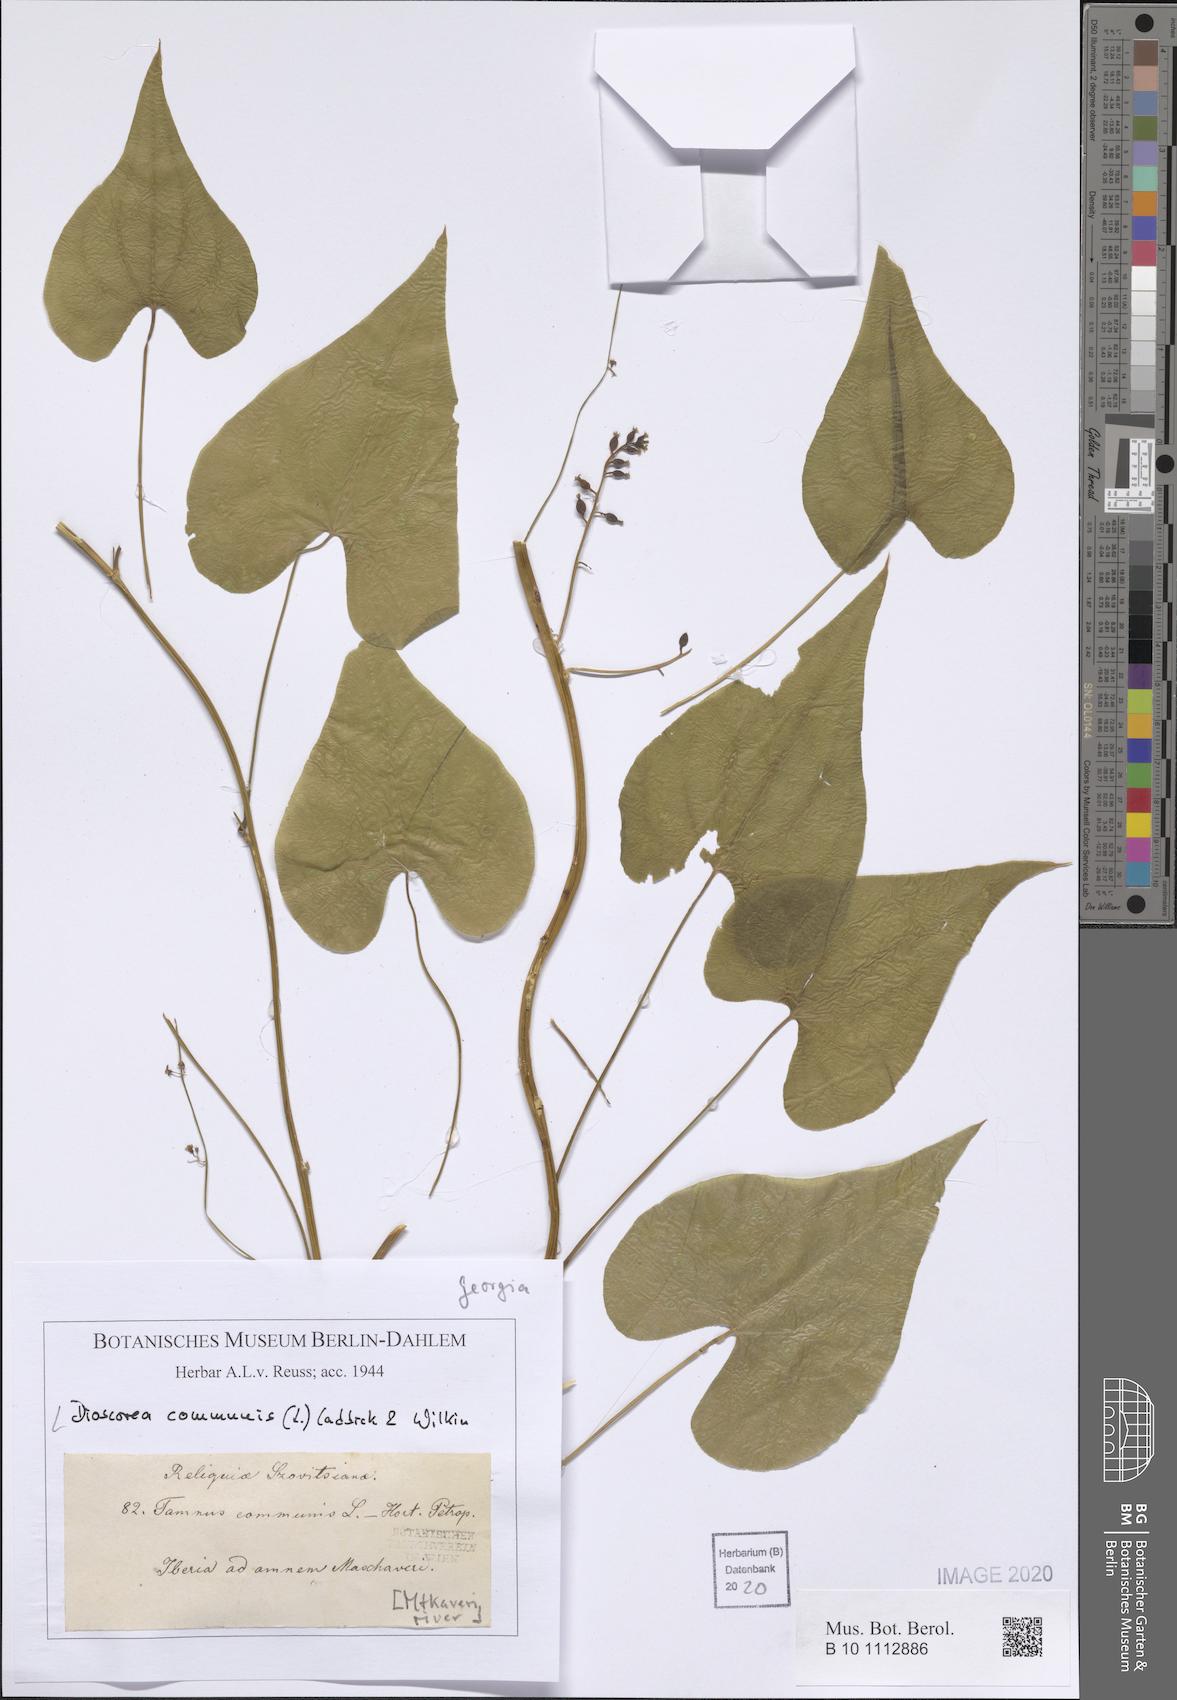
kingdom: Plantae
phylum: Tracheophyta
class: Liliopsida
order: Dioscoreales
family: Dioscoreaceae
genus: Dioscorea
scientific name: Dioscorea communis
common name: Black-bindweed
